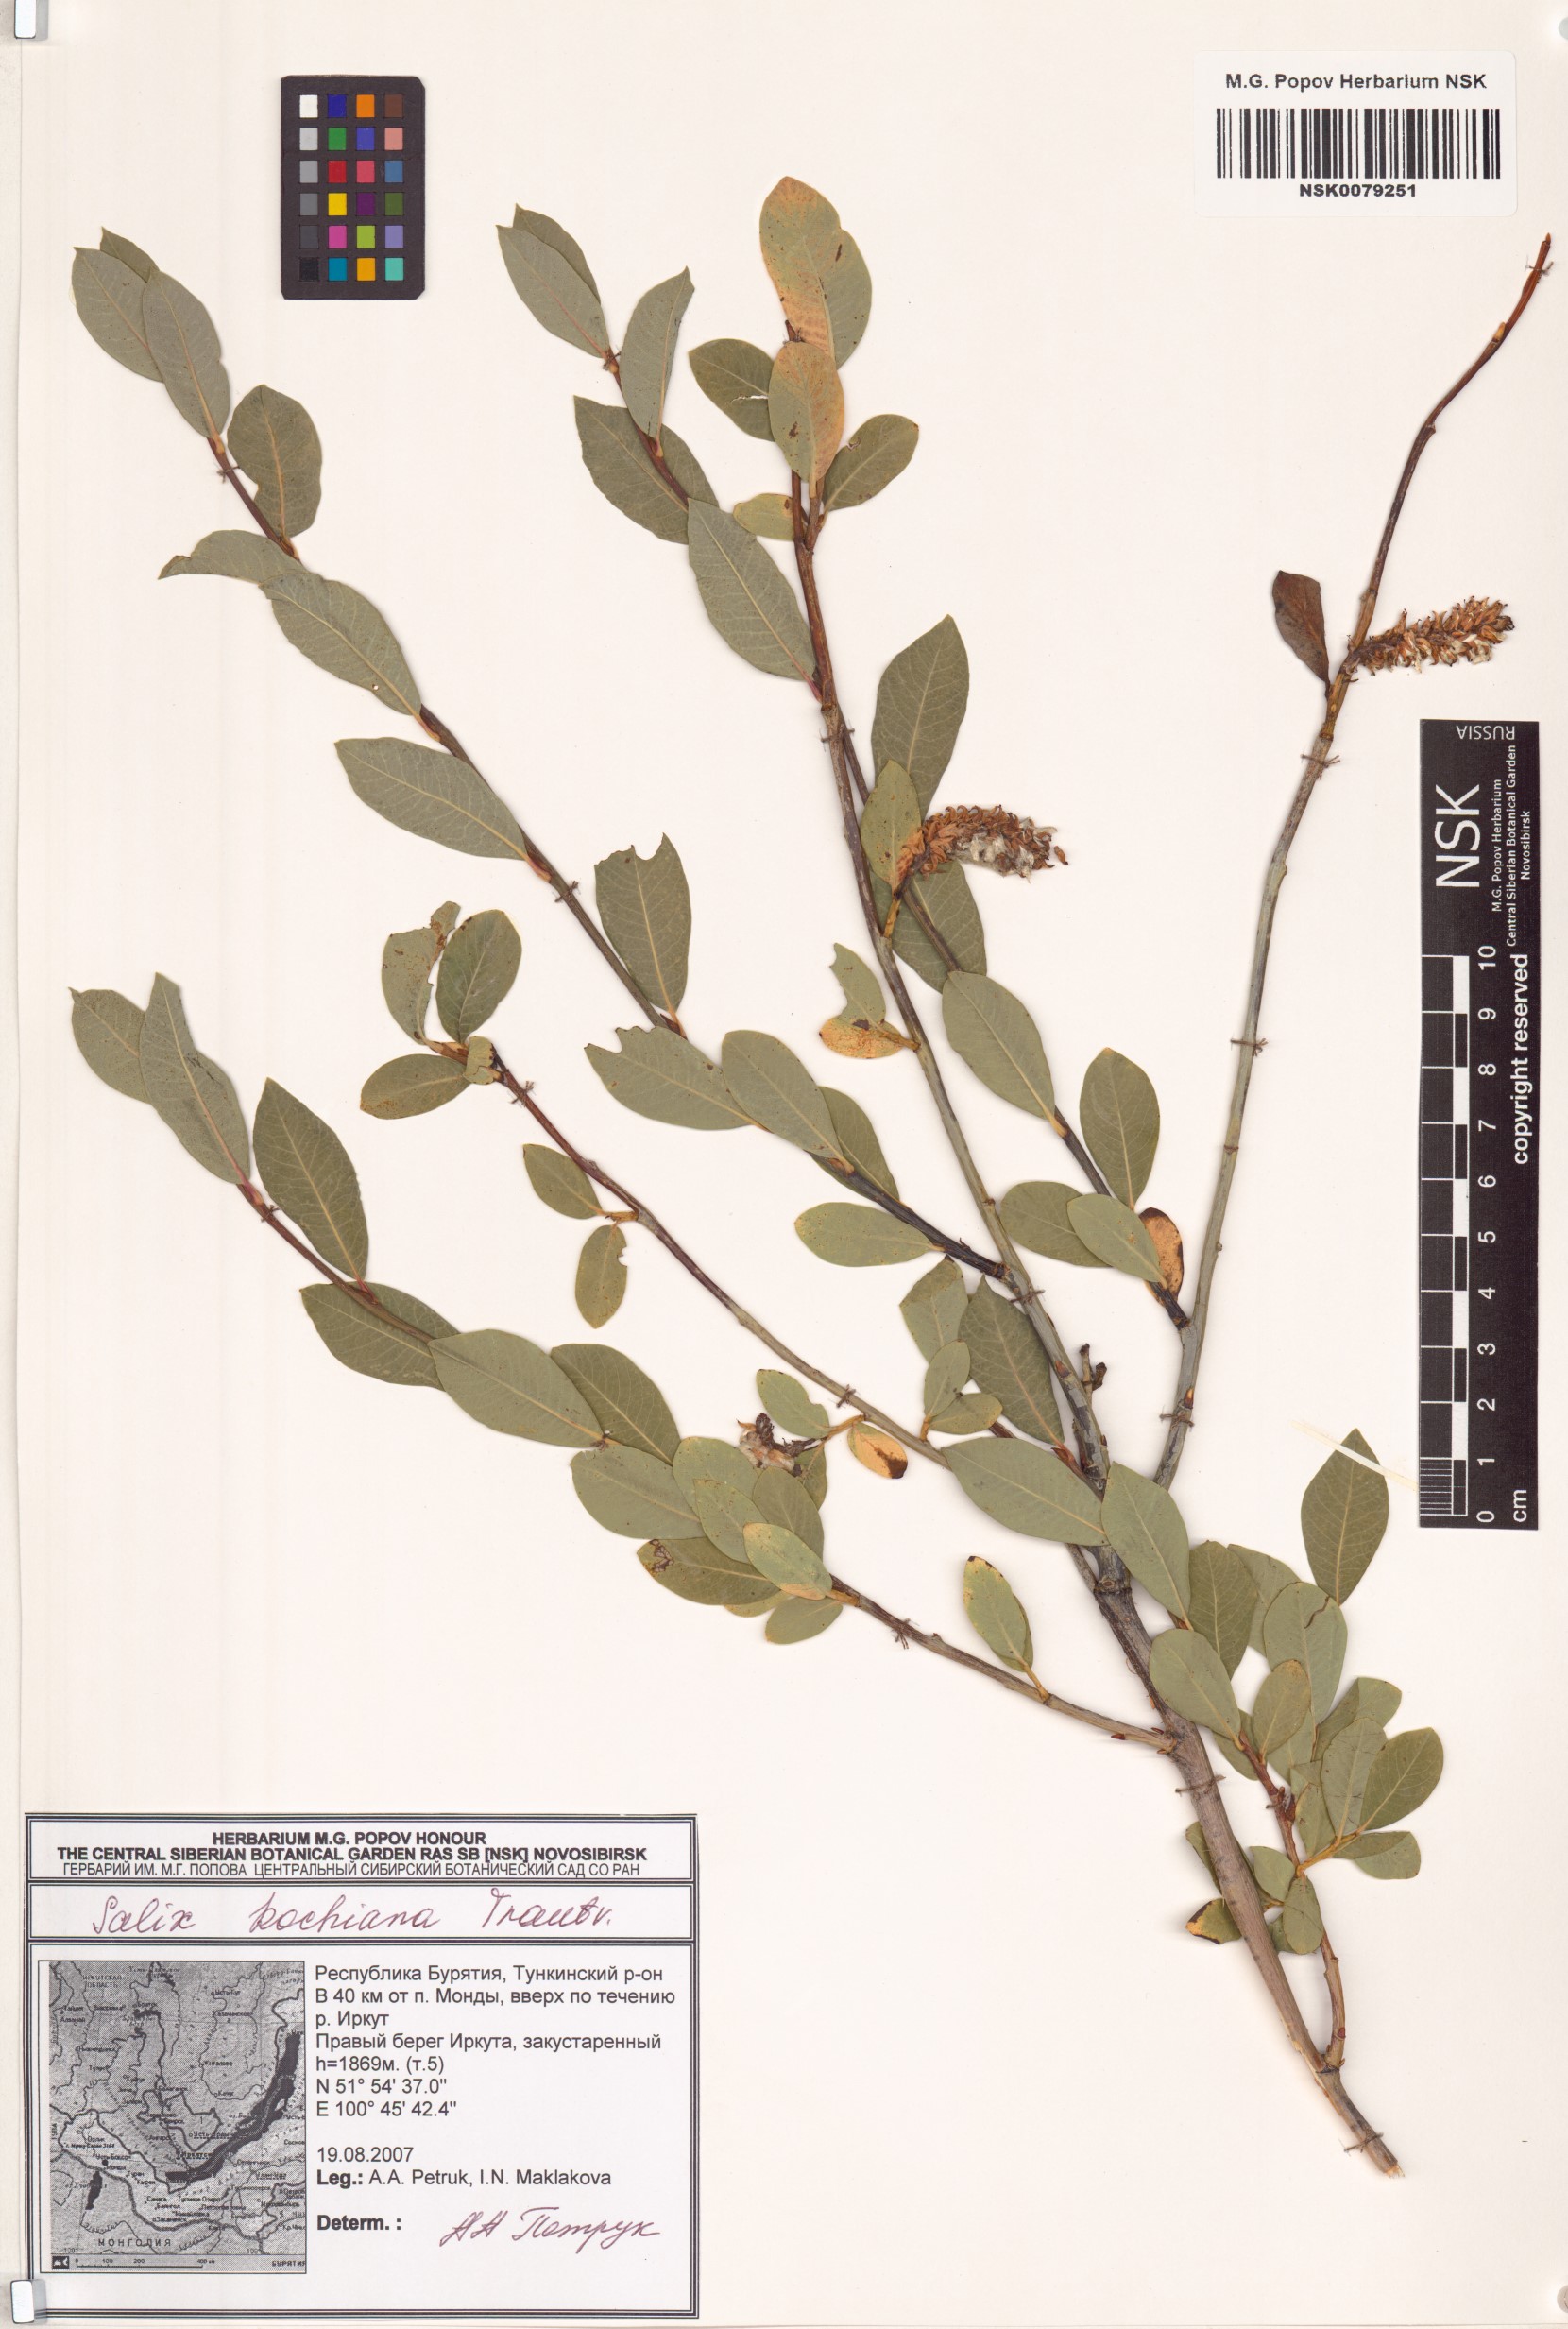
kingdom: Plantae
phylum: Tracheophyta
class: Magnoliopsida
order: Malpighiales
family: Salicaceae
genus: Salix
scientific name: Salix kochiana
